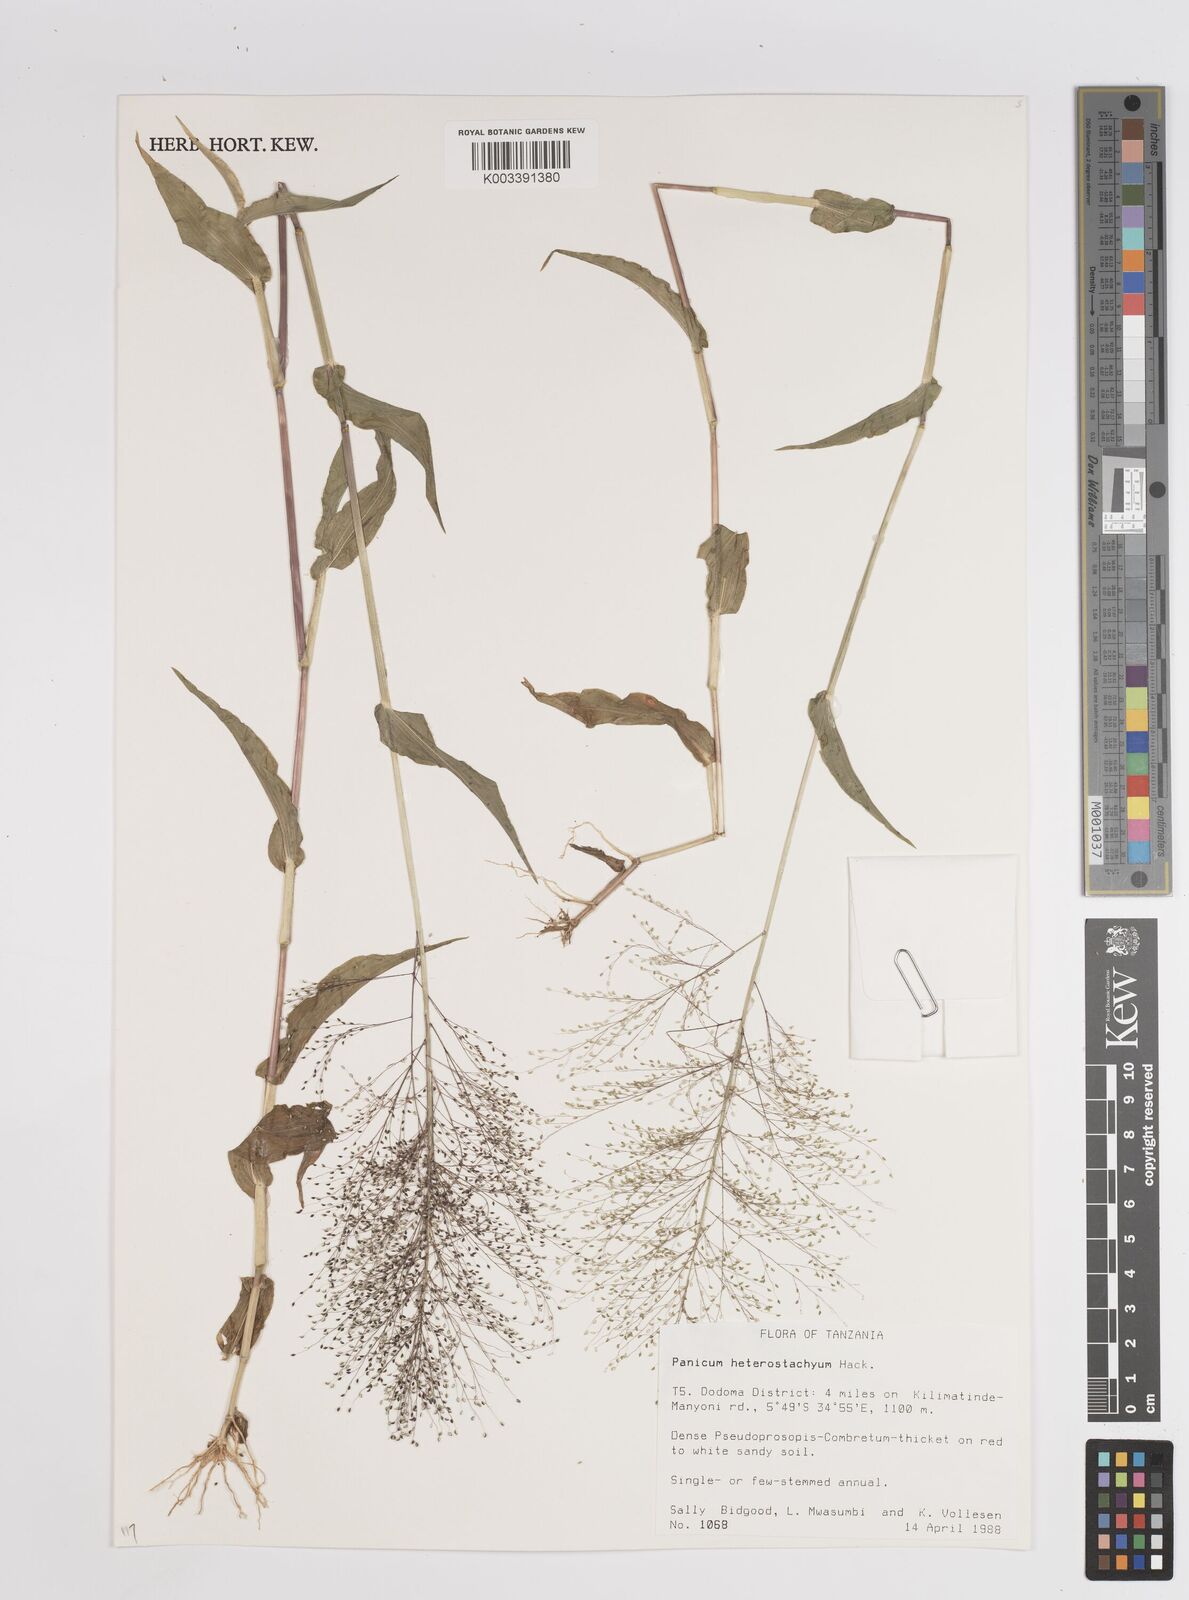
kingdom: Plantae
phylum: Tracheophyta
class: Liliopsida
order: Poales
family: Poaceae
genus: Panicum
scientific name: Panicum hirtum
